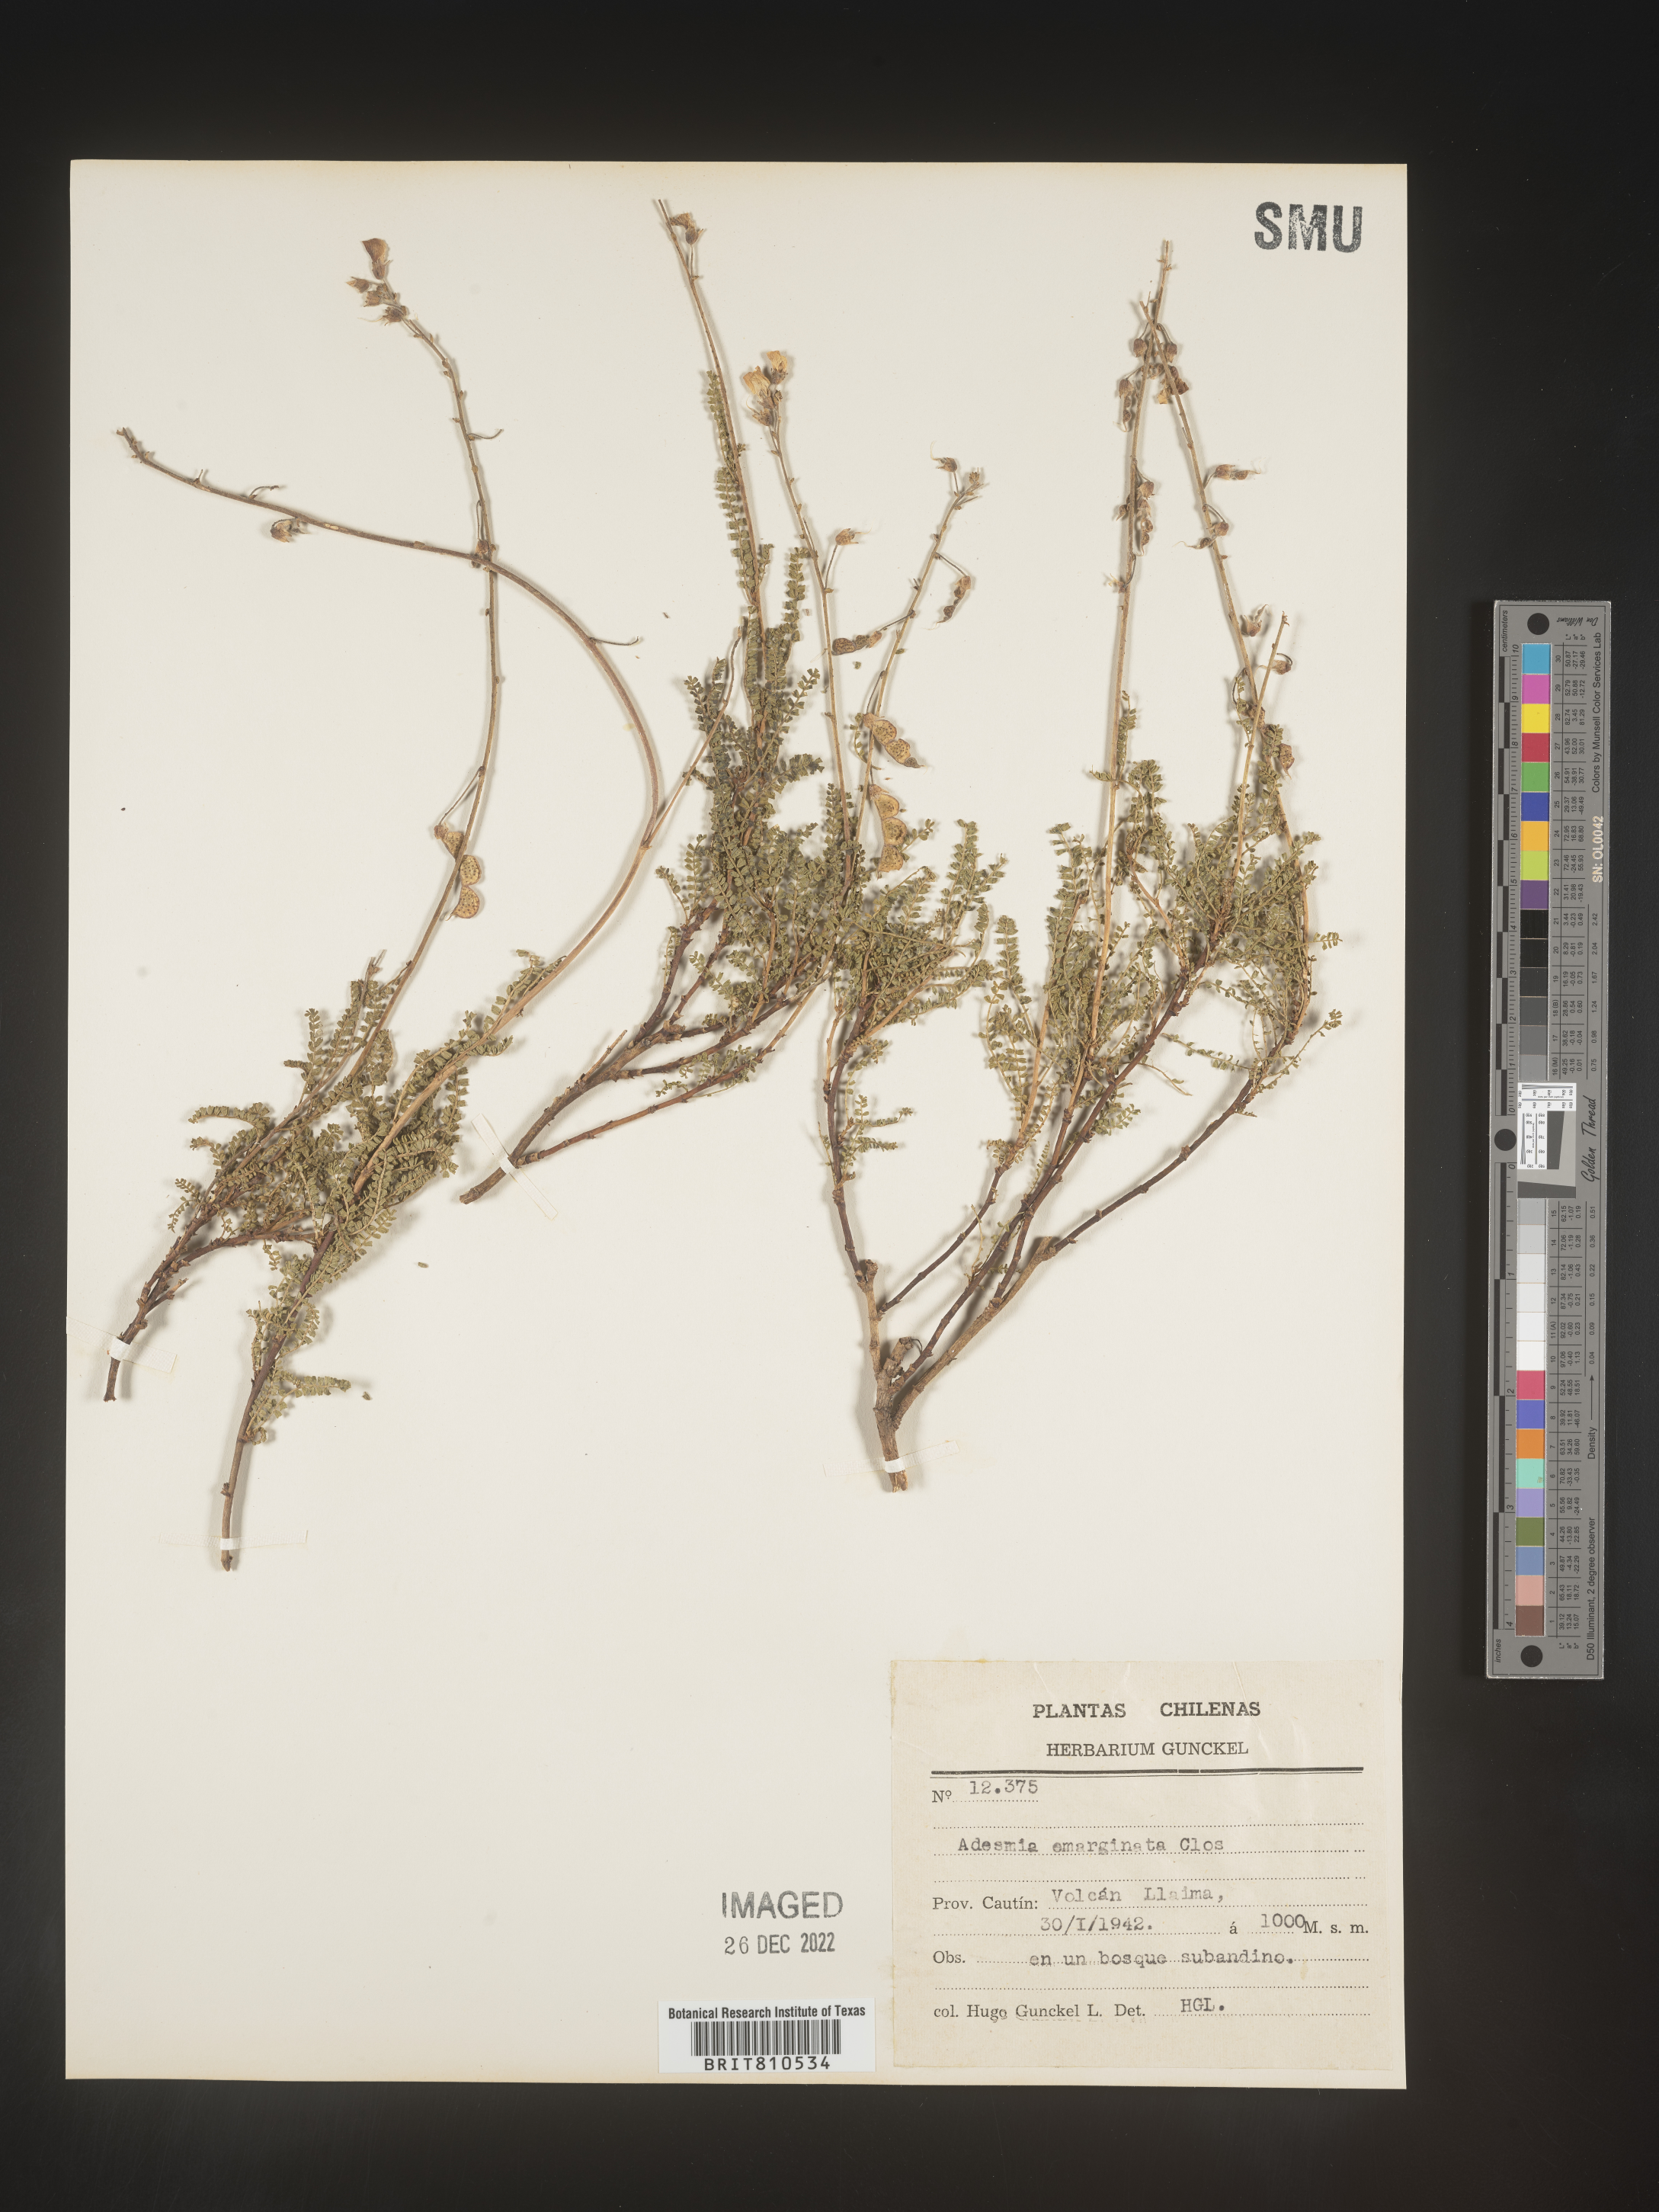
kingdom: Plantae
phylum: Tracheophyta
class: Magnoliopsida
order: Fabales
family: Fabaceae
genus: Adesmia
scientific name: Adesmia
